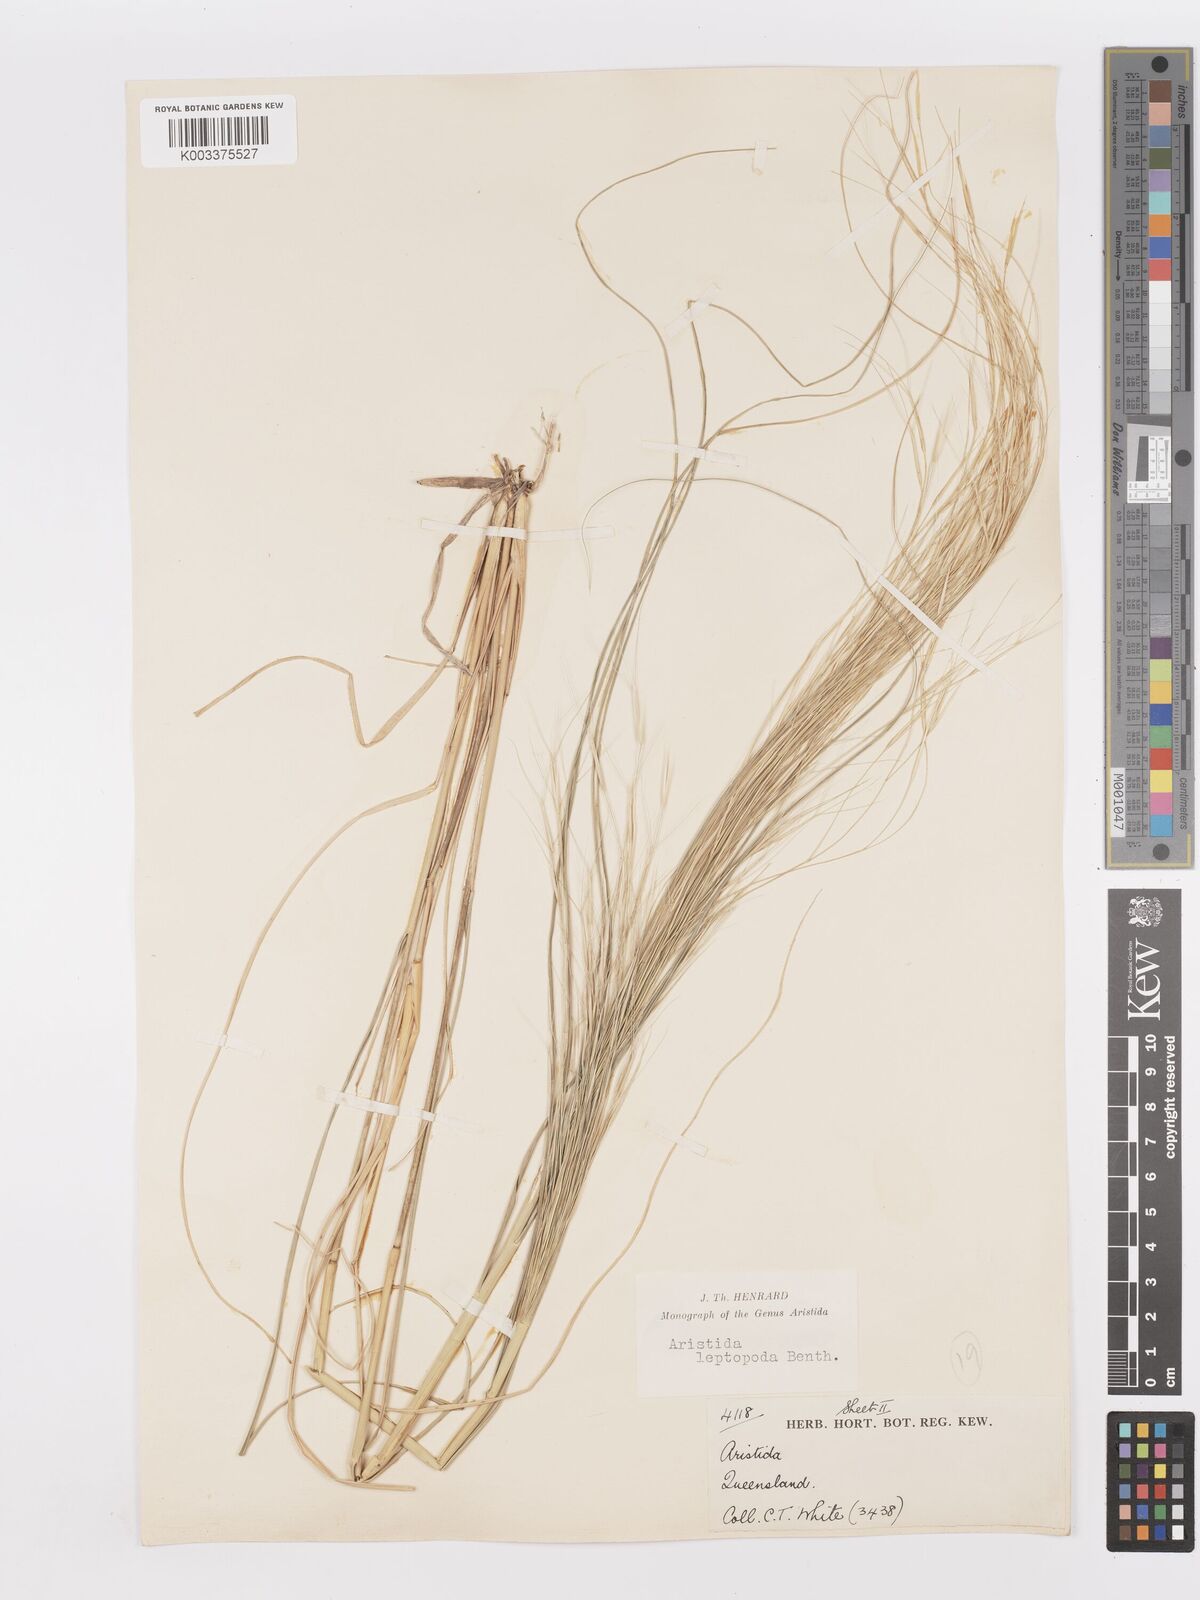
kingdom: Plantae
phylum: Tracheophyta
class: Liliopsida
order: Poales
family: Poaceae
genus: Aristida
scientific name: Aristida leptopoda
